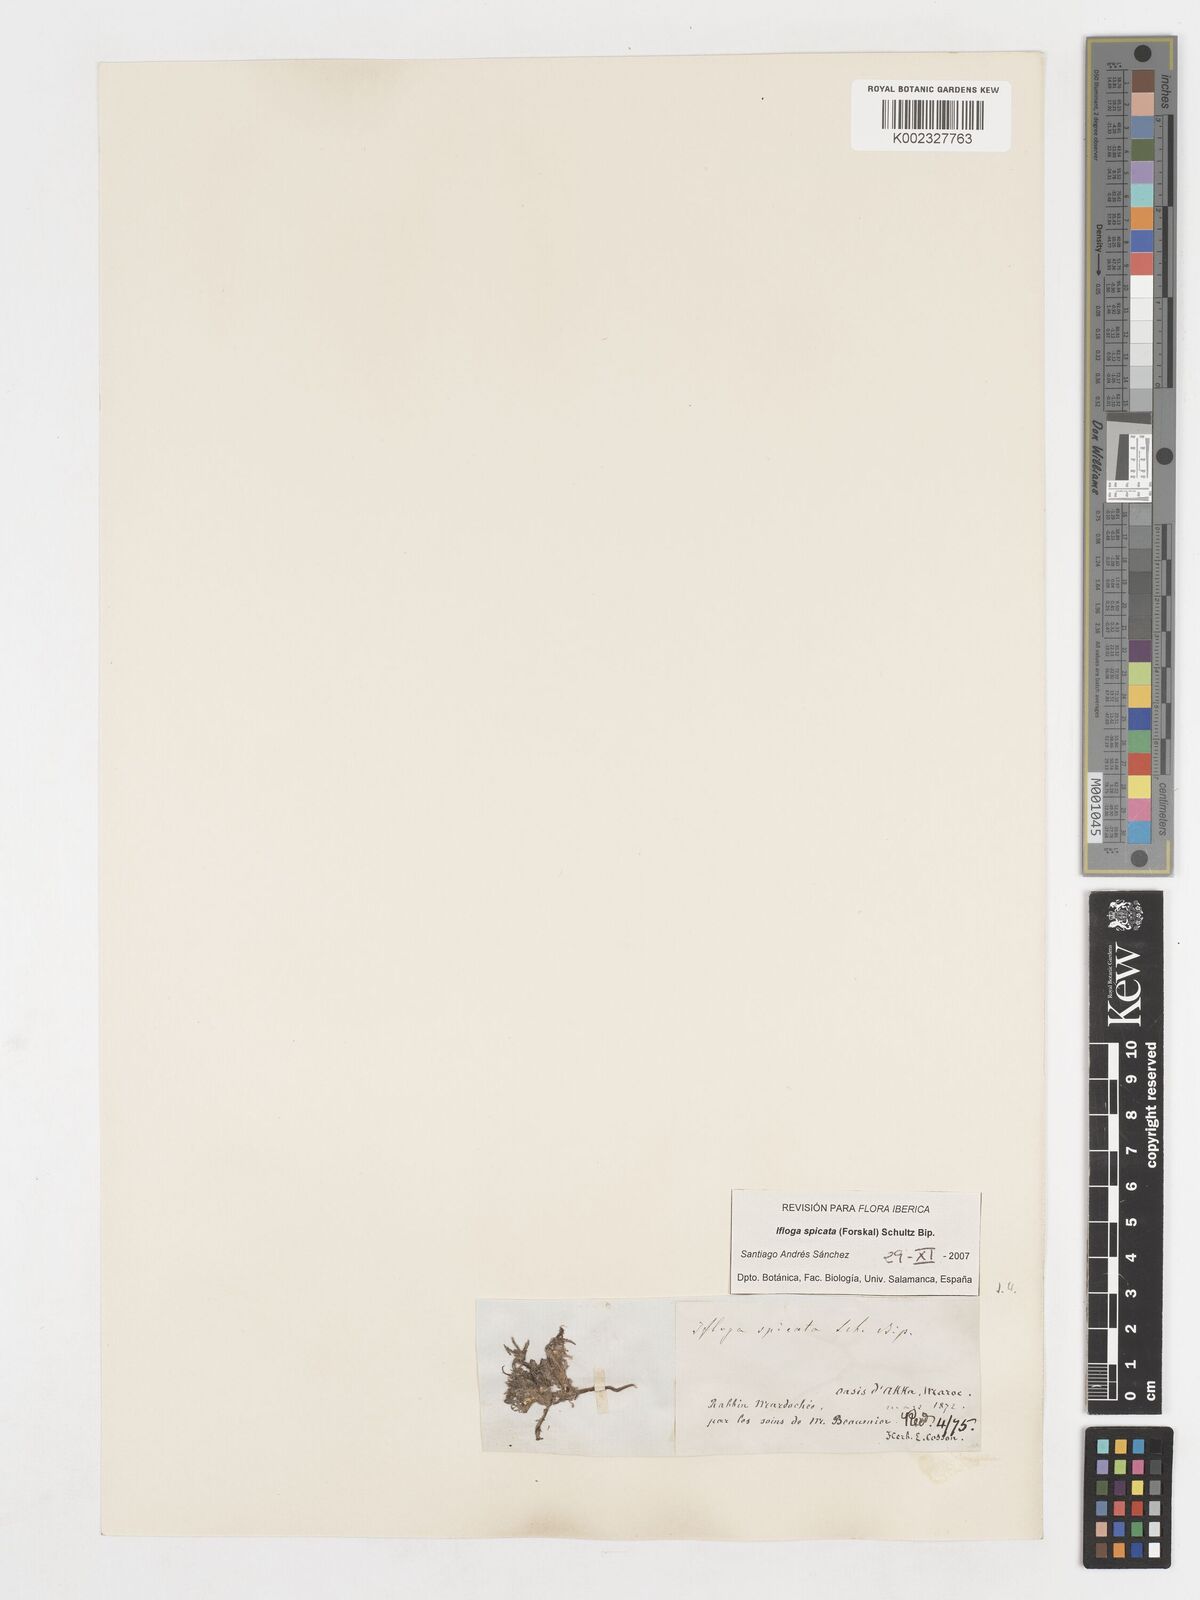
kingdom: Plantae
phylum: Tracheophyta
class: Magnoliopsida
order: Asterales
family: Asteraceae
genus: Ifloga
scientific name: Ifloga spicata
